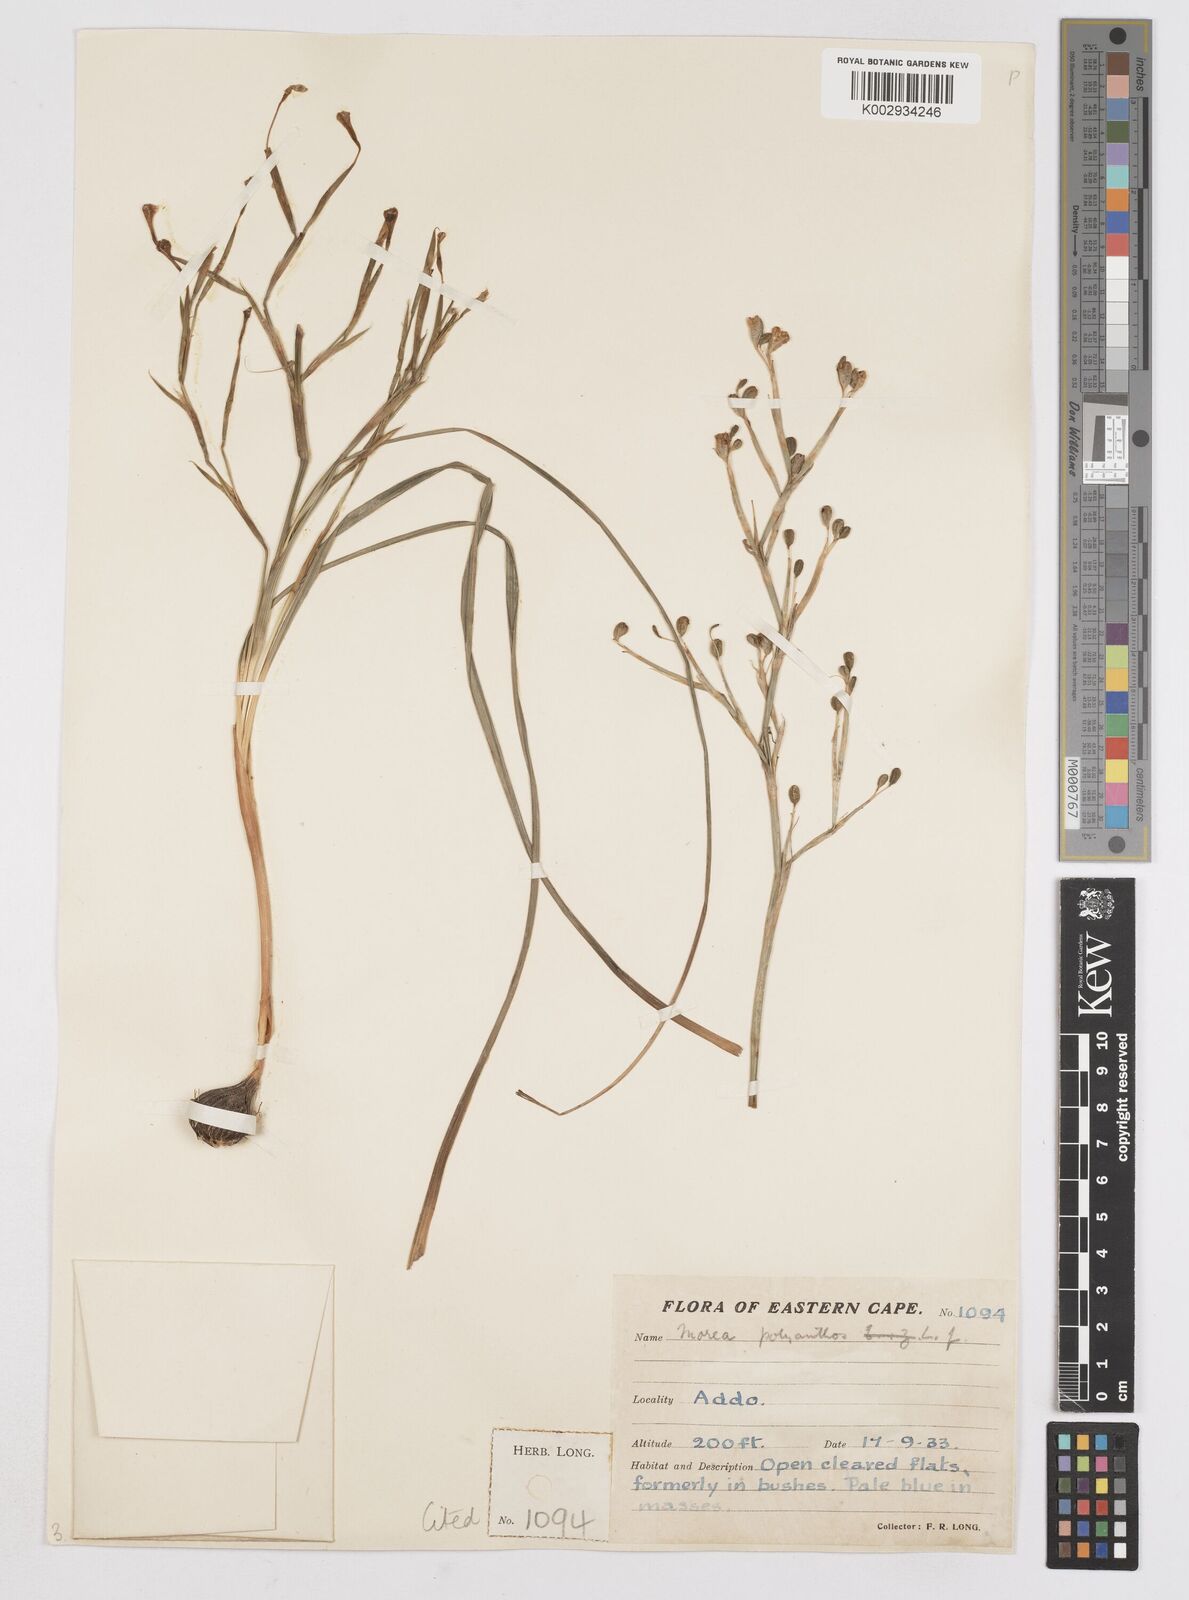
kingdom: Plantae
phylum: Tracheophyta
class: Liliopsida
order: Asparagales
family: Iridaceae
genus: Moraea
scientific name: Moraea bipartita
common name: Blue tulp
